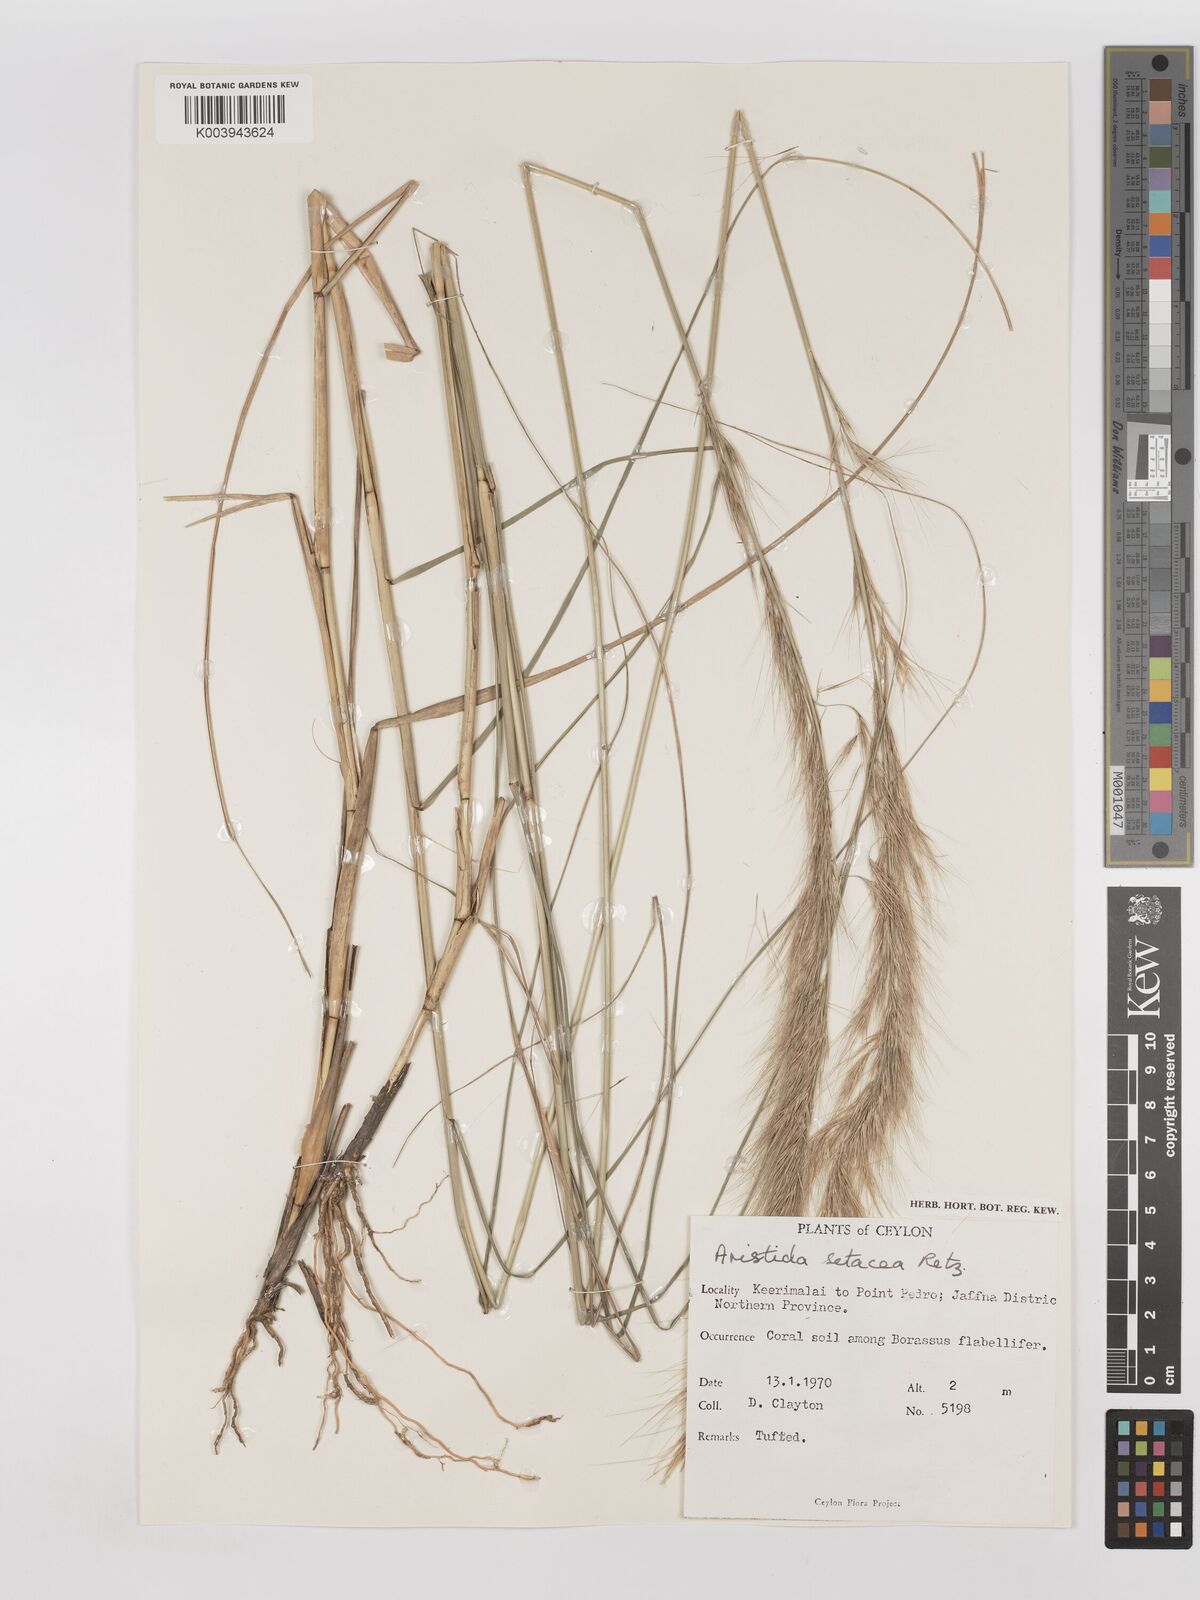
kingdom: Plantae
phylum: Tracheophyta
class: Liliopsida
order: Poales
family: Poaceae
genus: Aristida
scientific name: Aristida setacea
